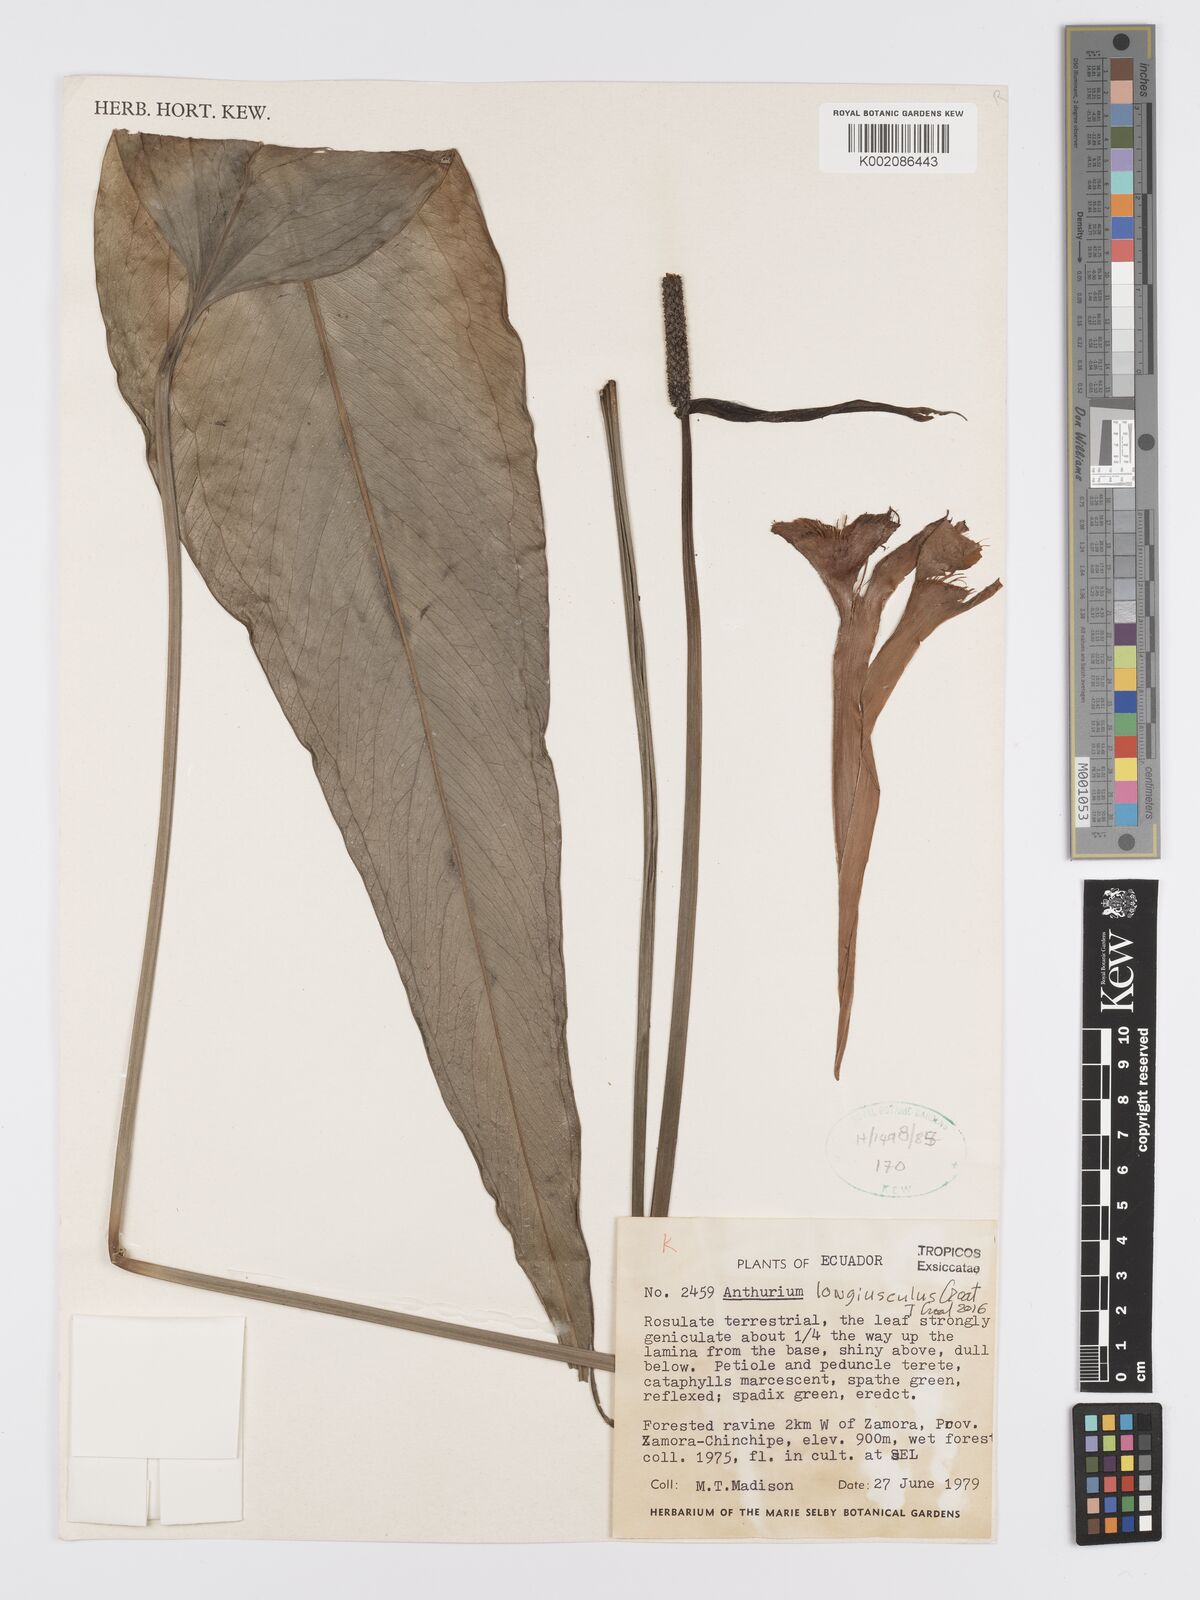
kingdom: Plantae
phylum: Tracheophyta
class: Liliopsida
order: Alismatales
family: Araceae
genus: Anthurium
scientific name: Anthurium
